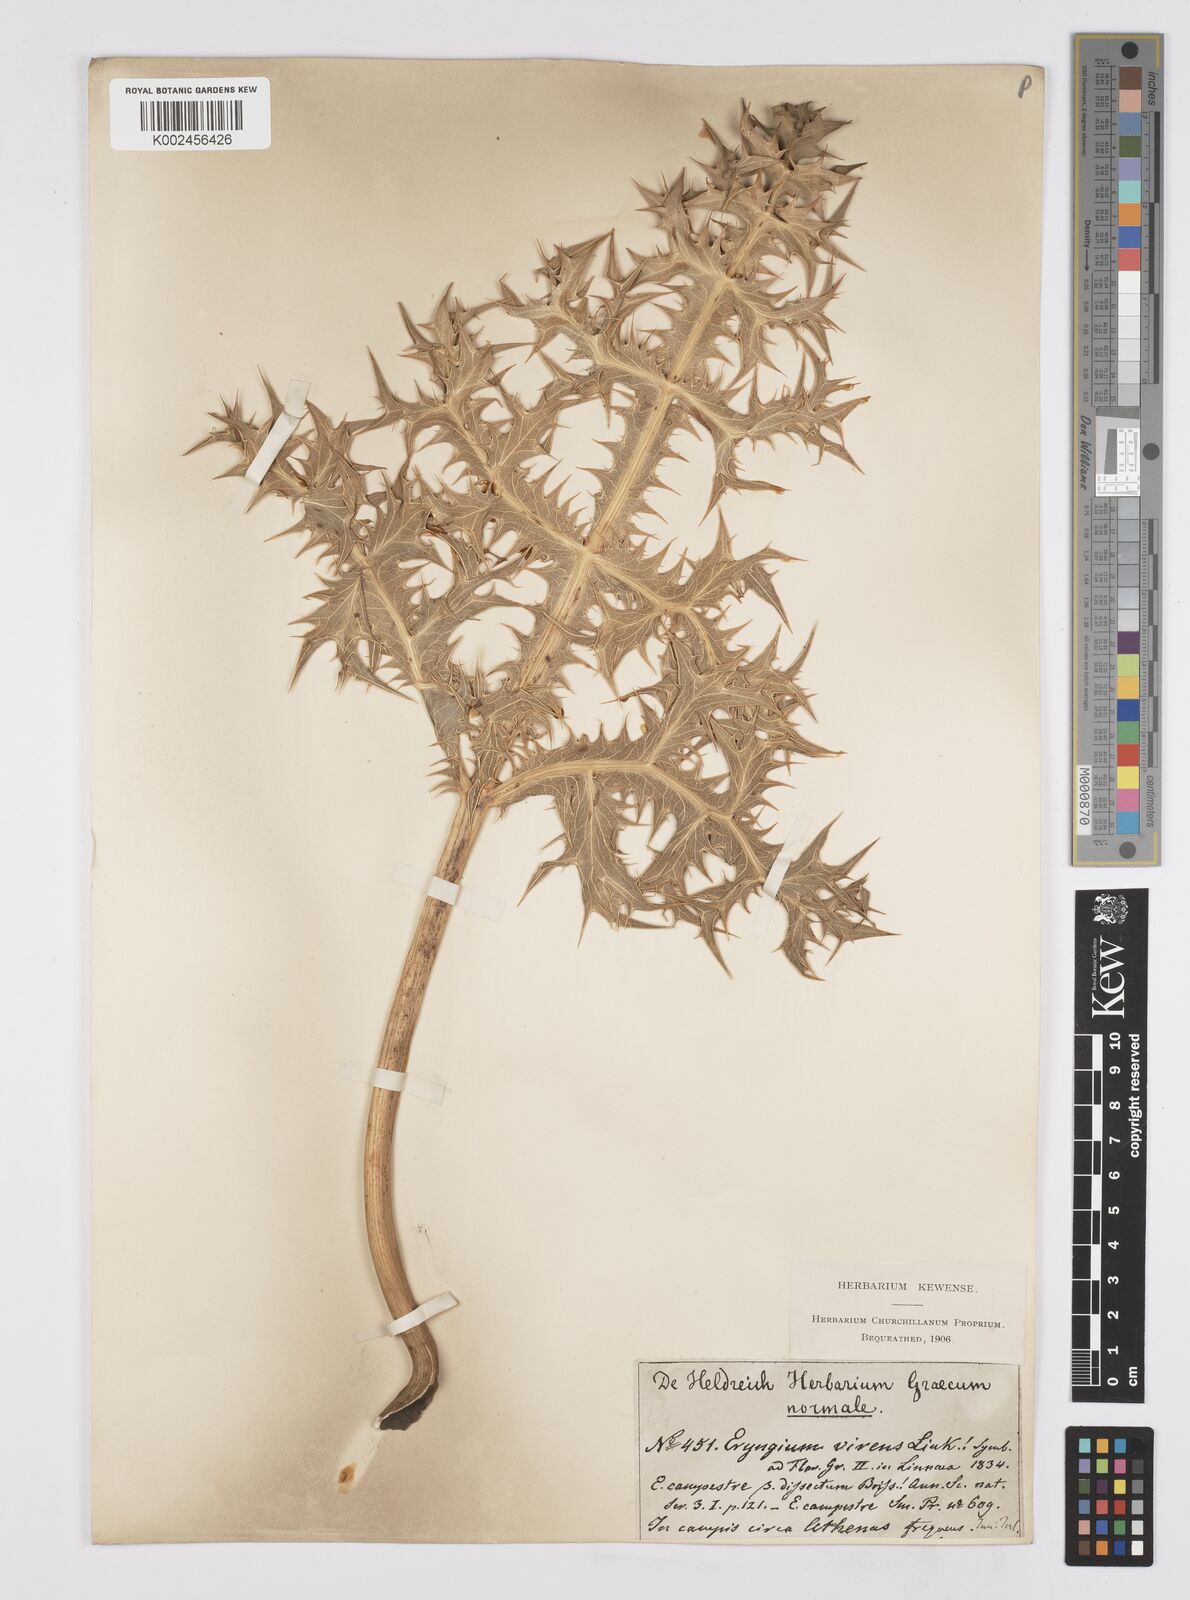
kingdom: Plantae
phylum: Tracheophyta
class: Magnoliopsida
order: Apiales
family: Apiaceae
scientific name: Apiaceae
